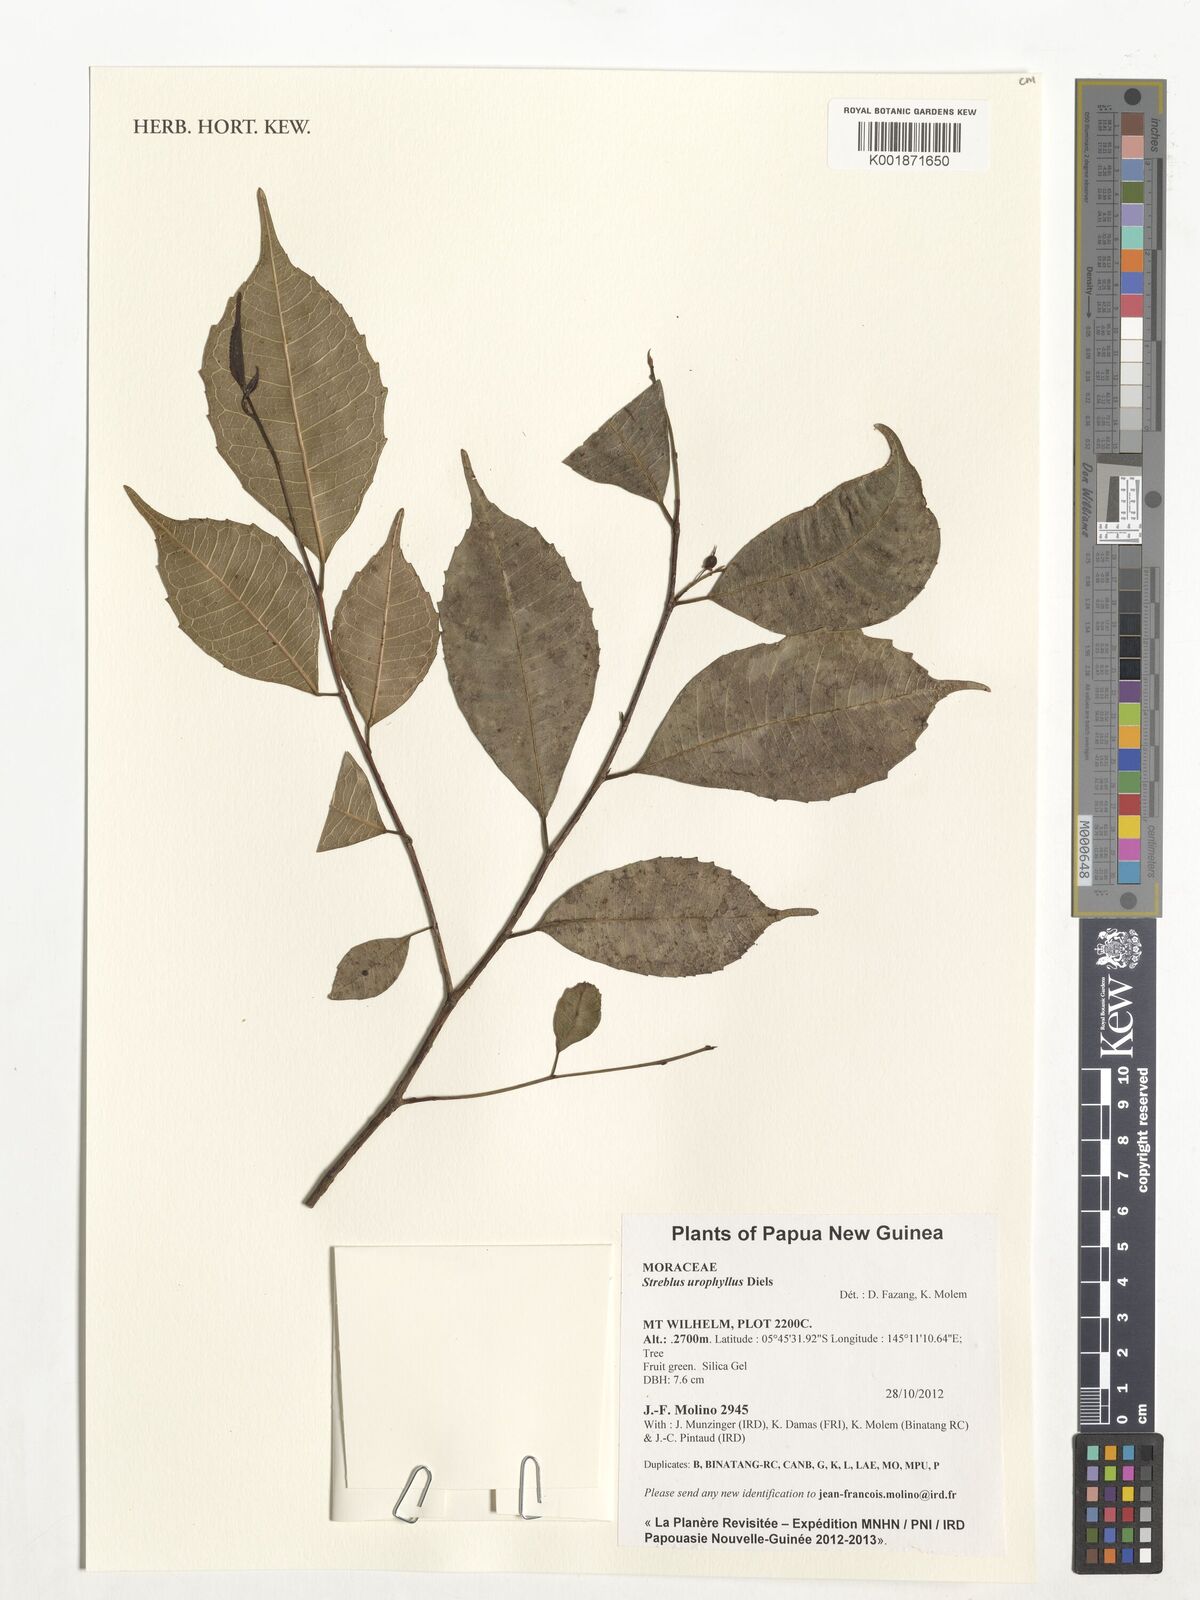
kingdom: Plantae
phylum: Tracheophyta
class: Magnoliopsida
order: Rosales
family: Moraceae
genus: Paratrophis
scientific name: Paratrophis glabra
